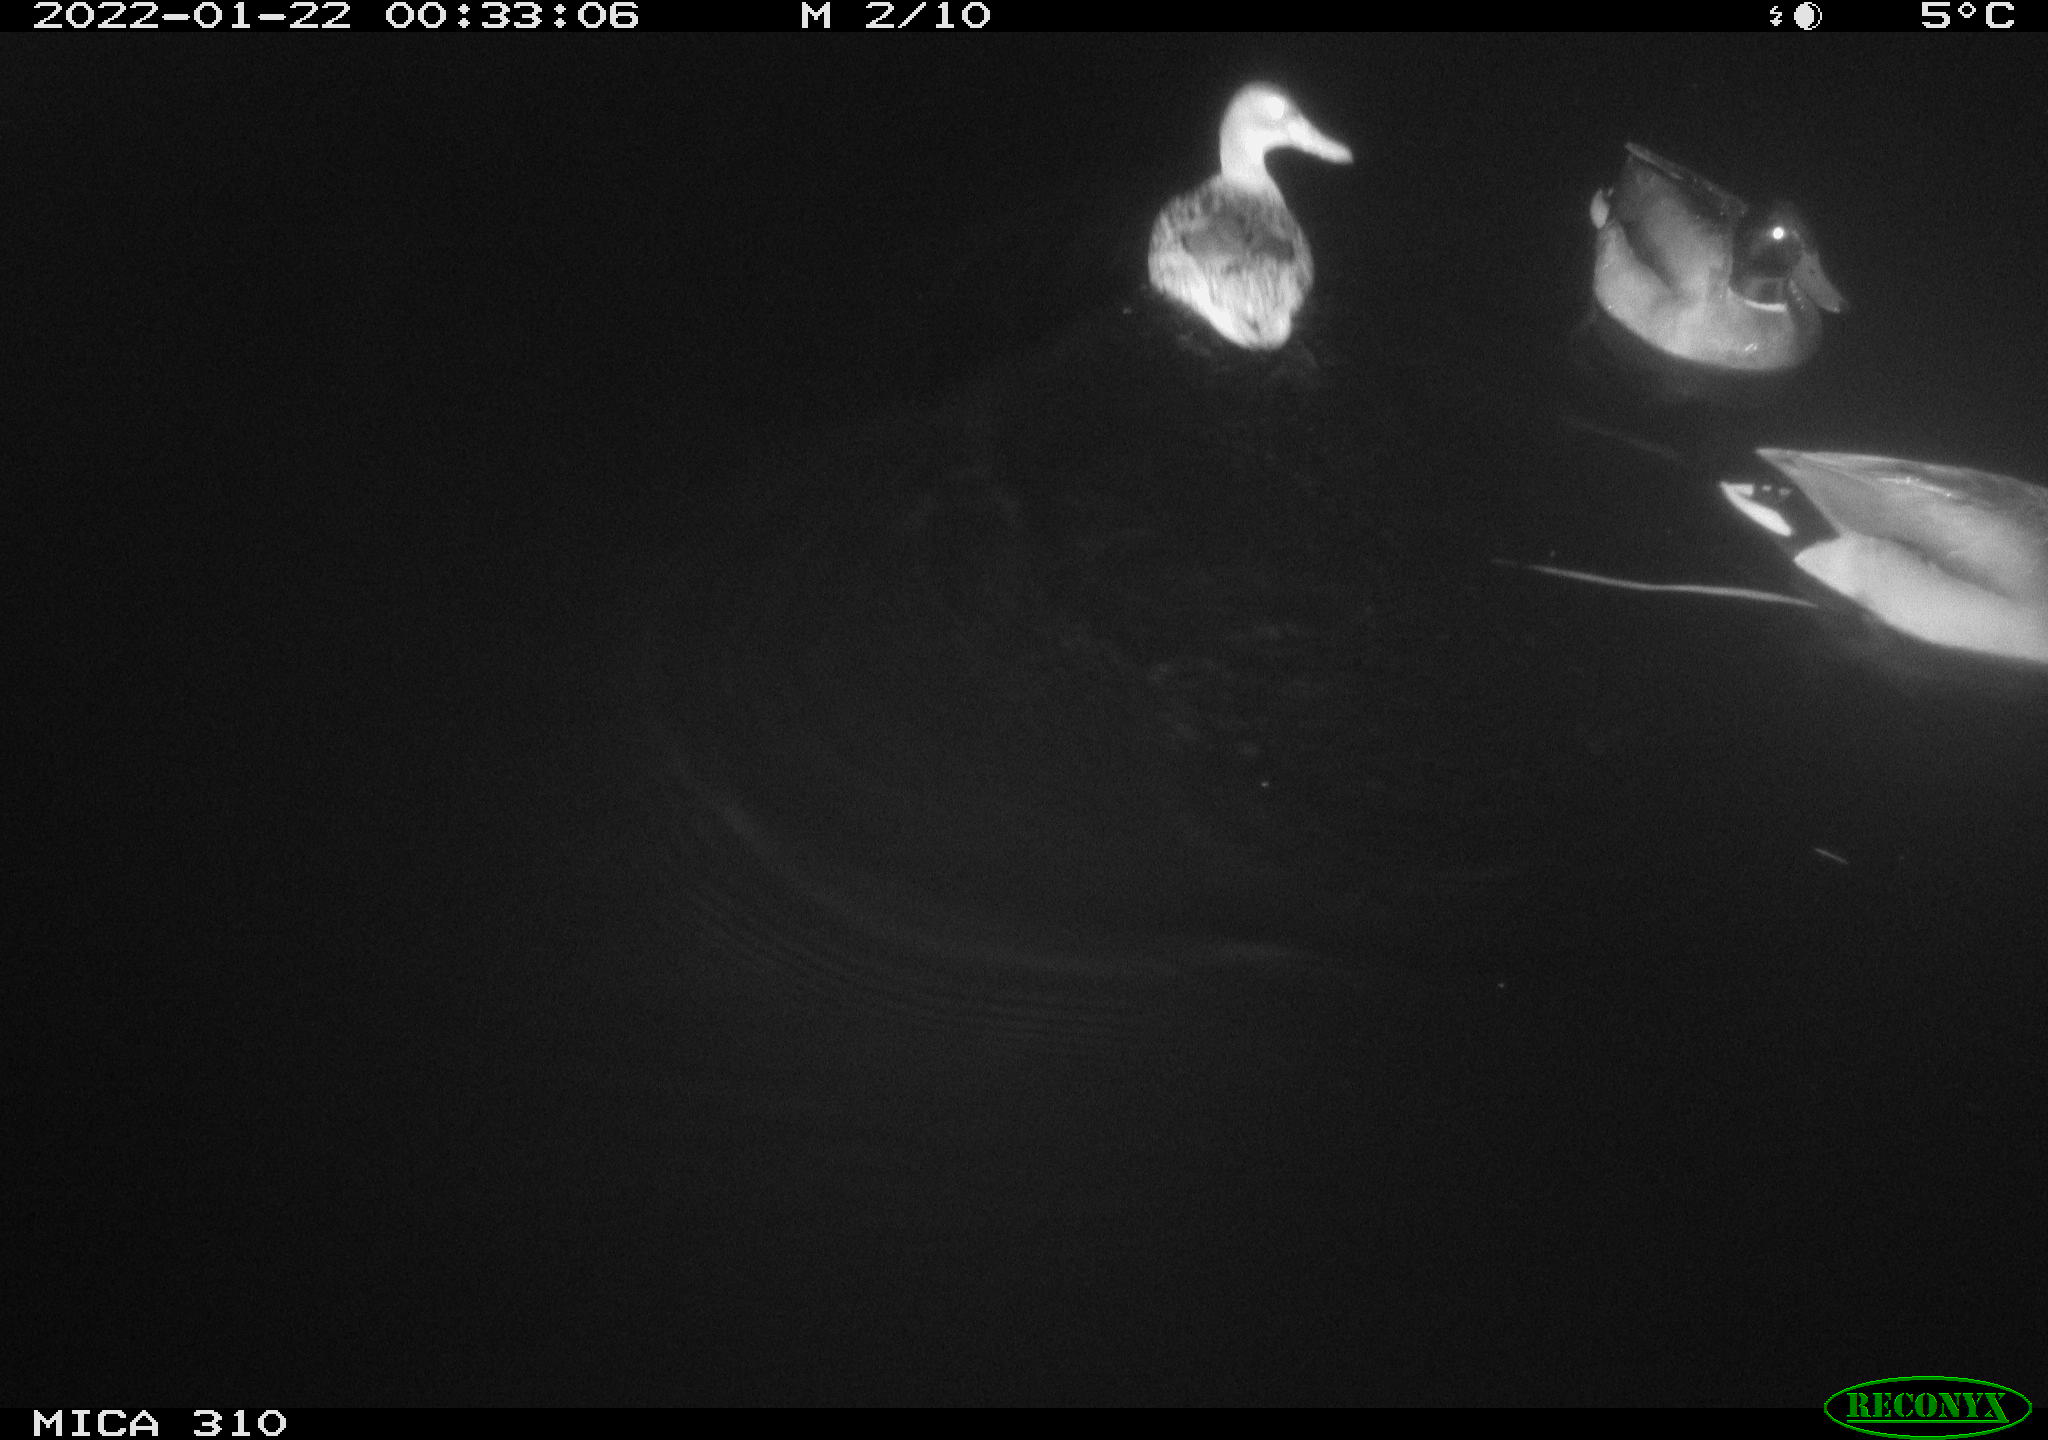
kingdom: Animalia
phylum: Chordata
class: Aves
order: Anseriformes
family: Anatidae
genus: Anas
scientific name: Anas
